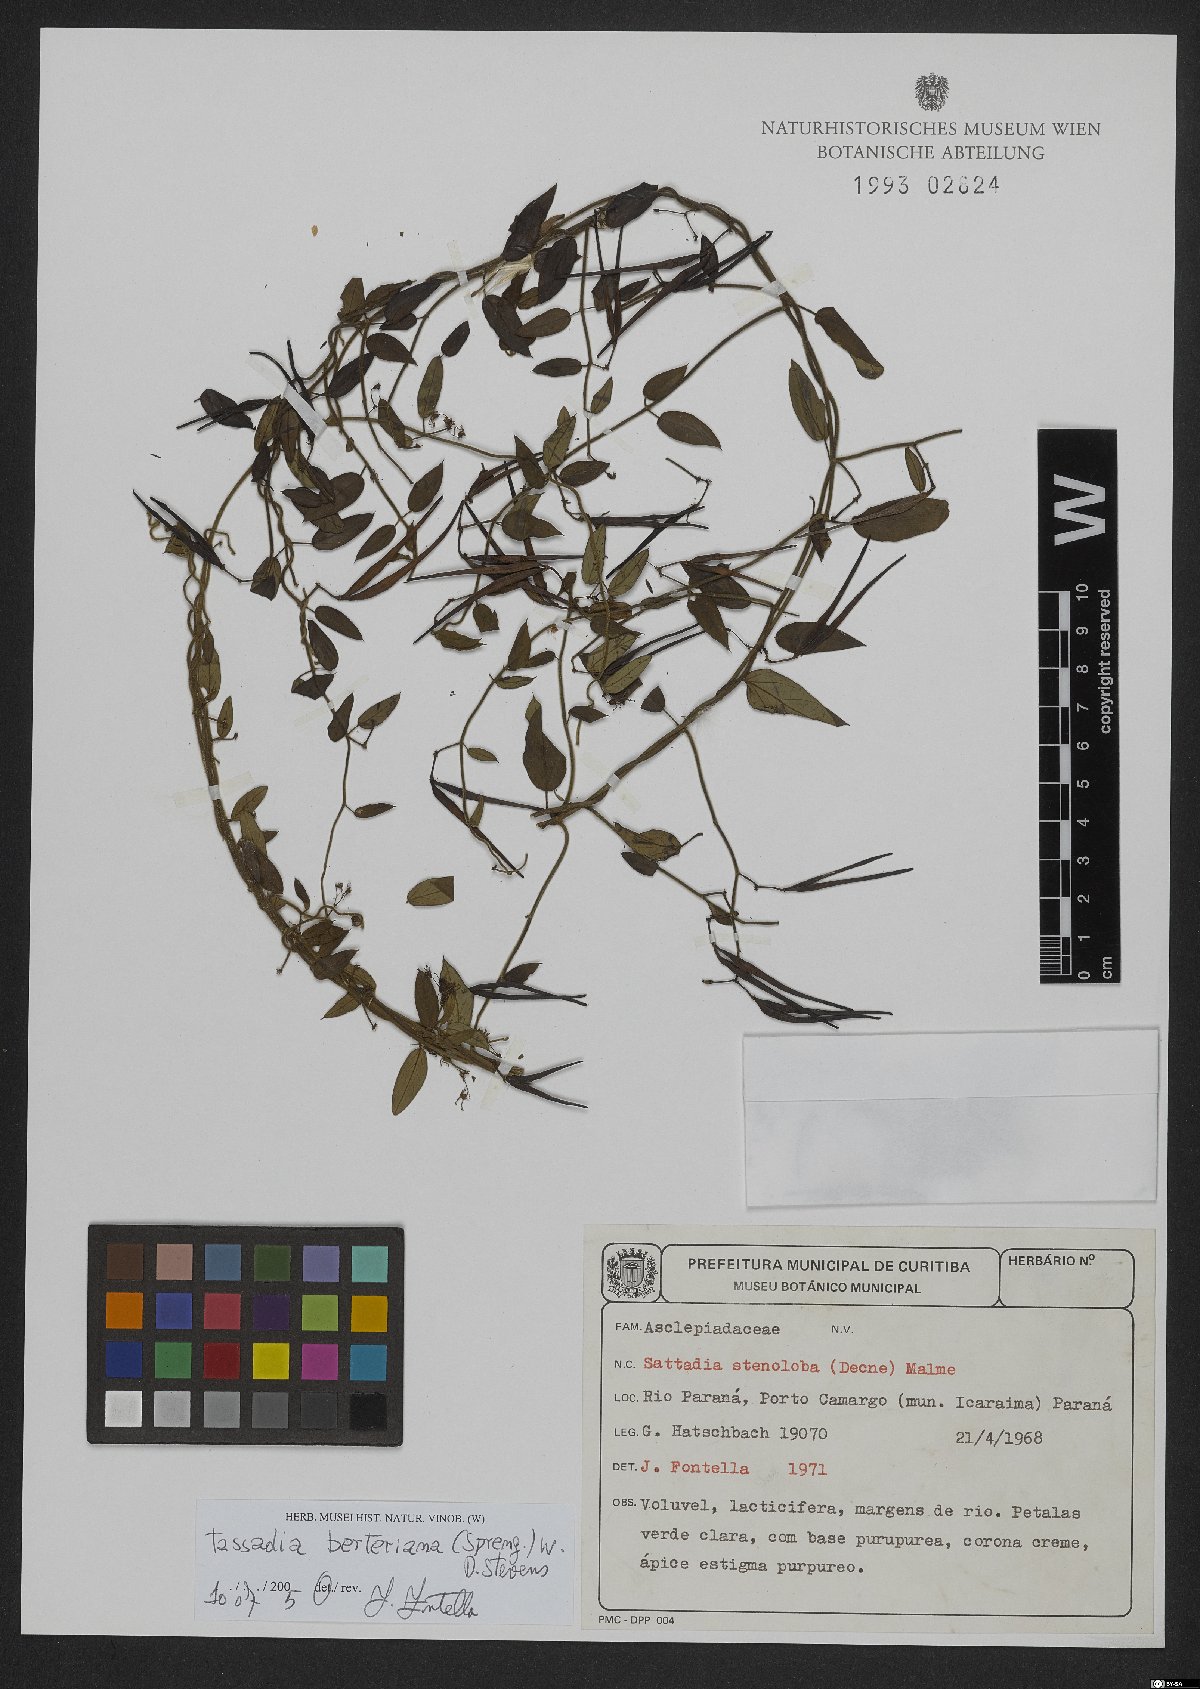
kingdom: Plantae
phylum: Tracheophyta
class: Magnoliopsida
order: Gentianales
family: Apocynaceae
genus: Tassadia
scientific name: Tassadia berteroana
